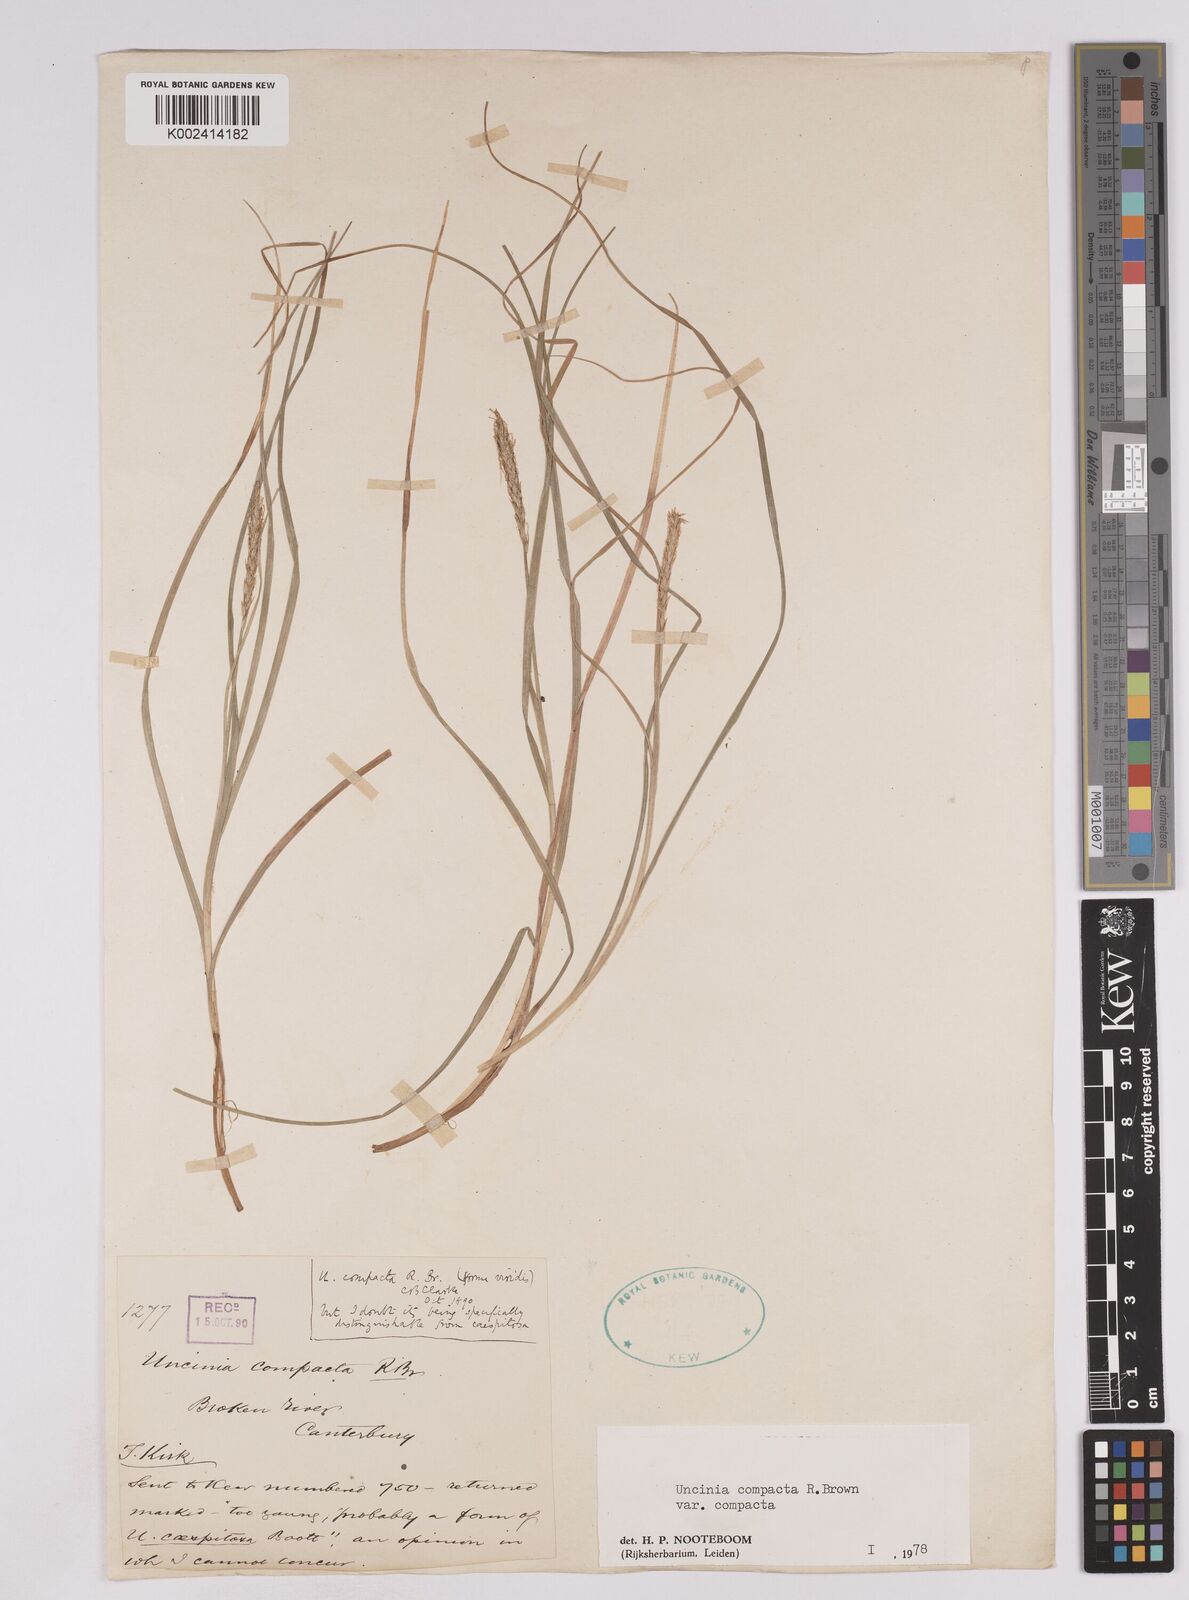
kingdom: Plantae
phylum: Tracheophyta
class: Liliopsida
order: Poales
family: Cyperaceae
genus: Carex
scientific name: Carex austrocompacta
